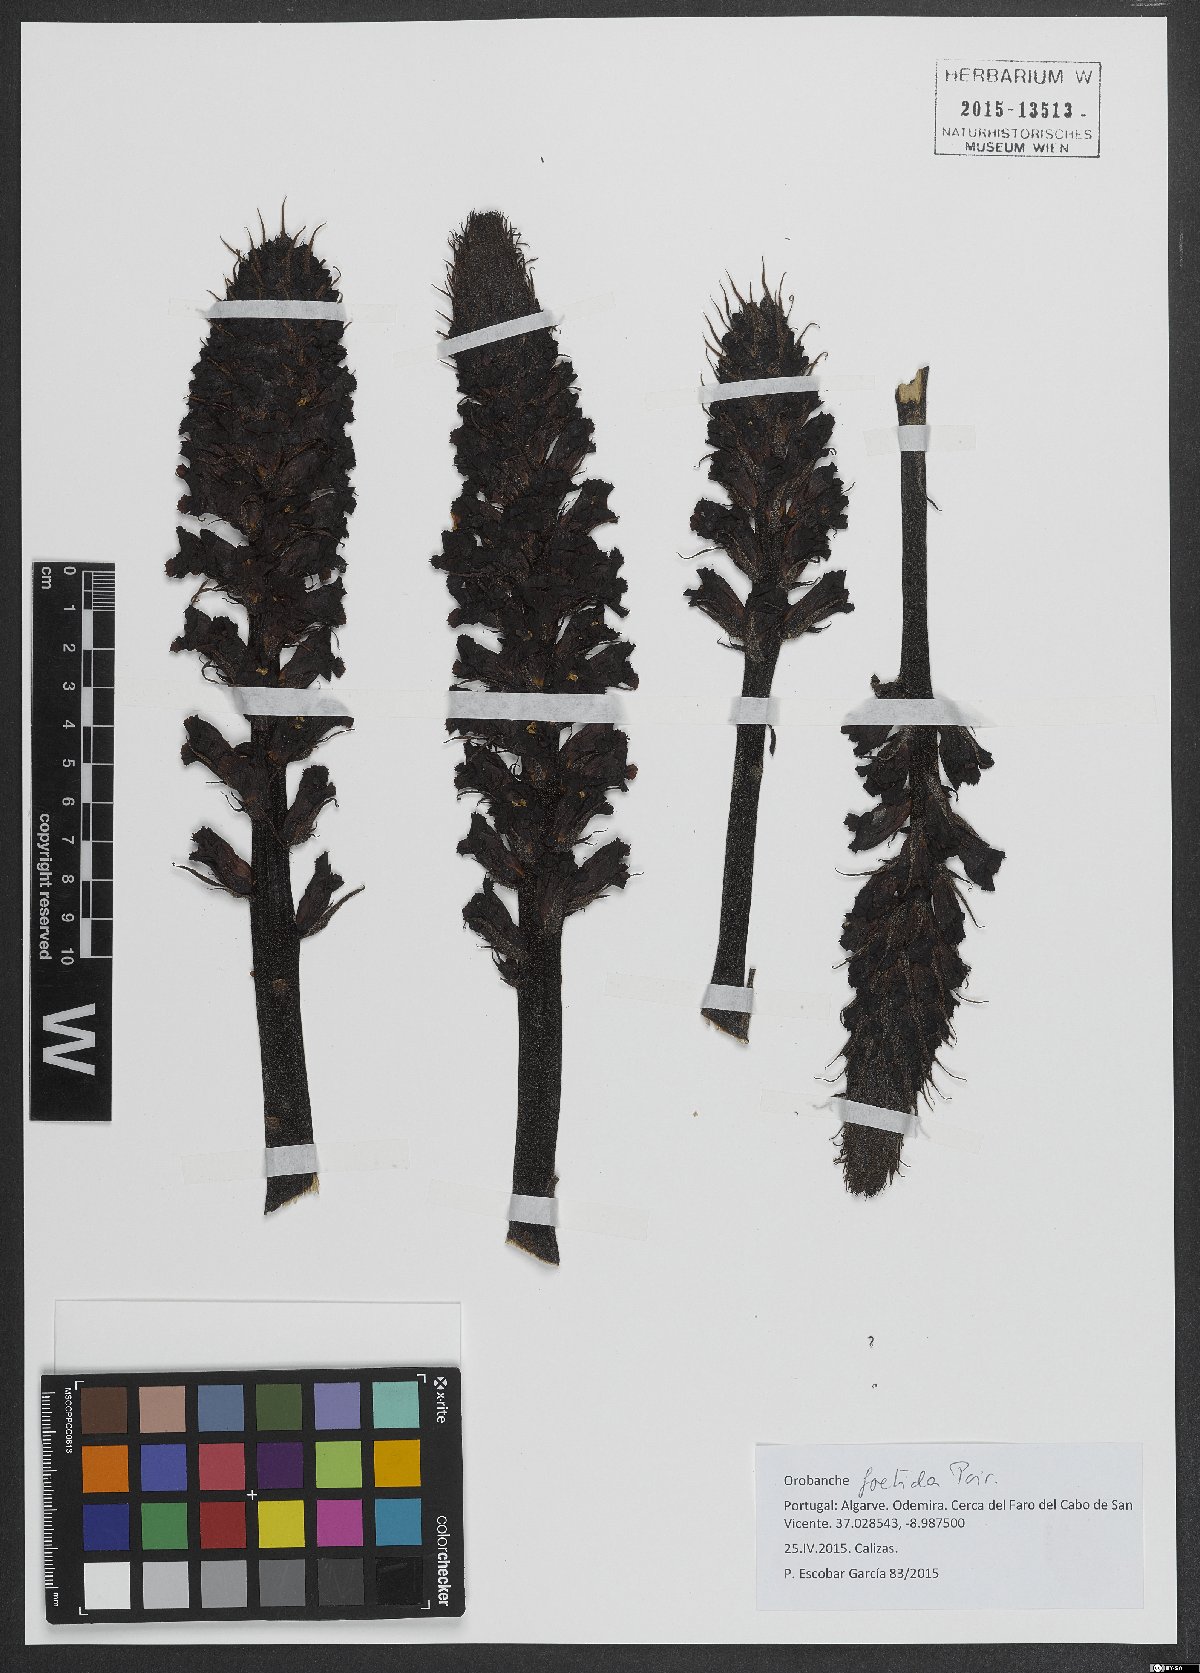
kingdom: Plantae
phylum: Tracheophyta
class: Magnoliopsida
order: Lamiales
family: Orobanchaceae
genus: Orobanche
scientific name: Orobanche foetida
